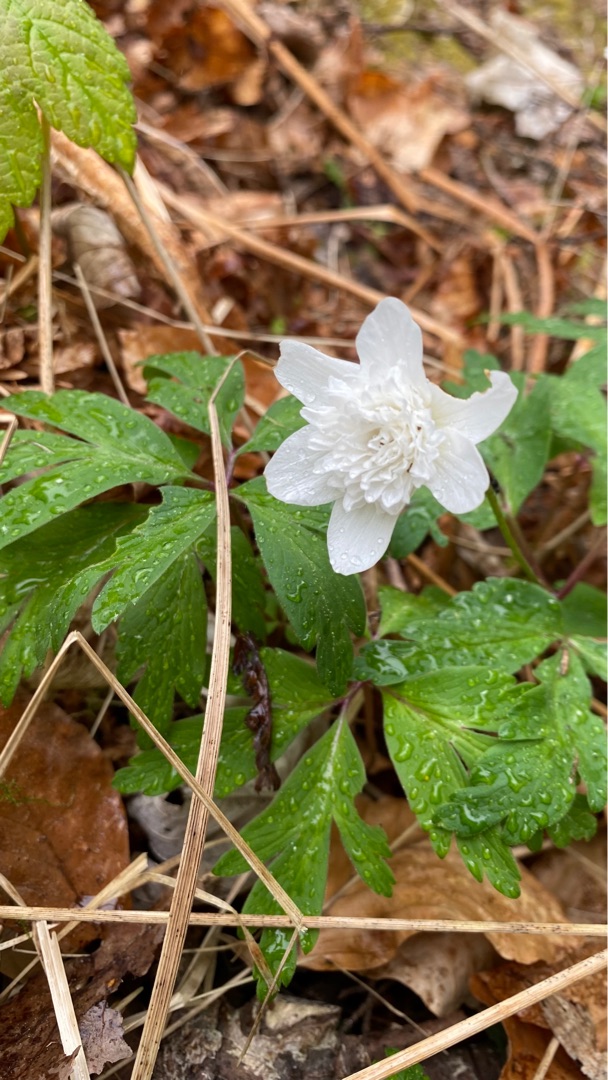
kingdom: Plantae
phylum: Tracheophyta
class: Magnoliopsida
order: Ranunculales
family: Ranunculaceae
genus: Anemone
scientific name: Anemone nemorosa
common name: Hvid anemone
